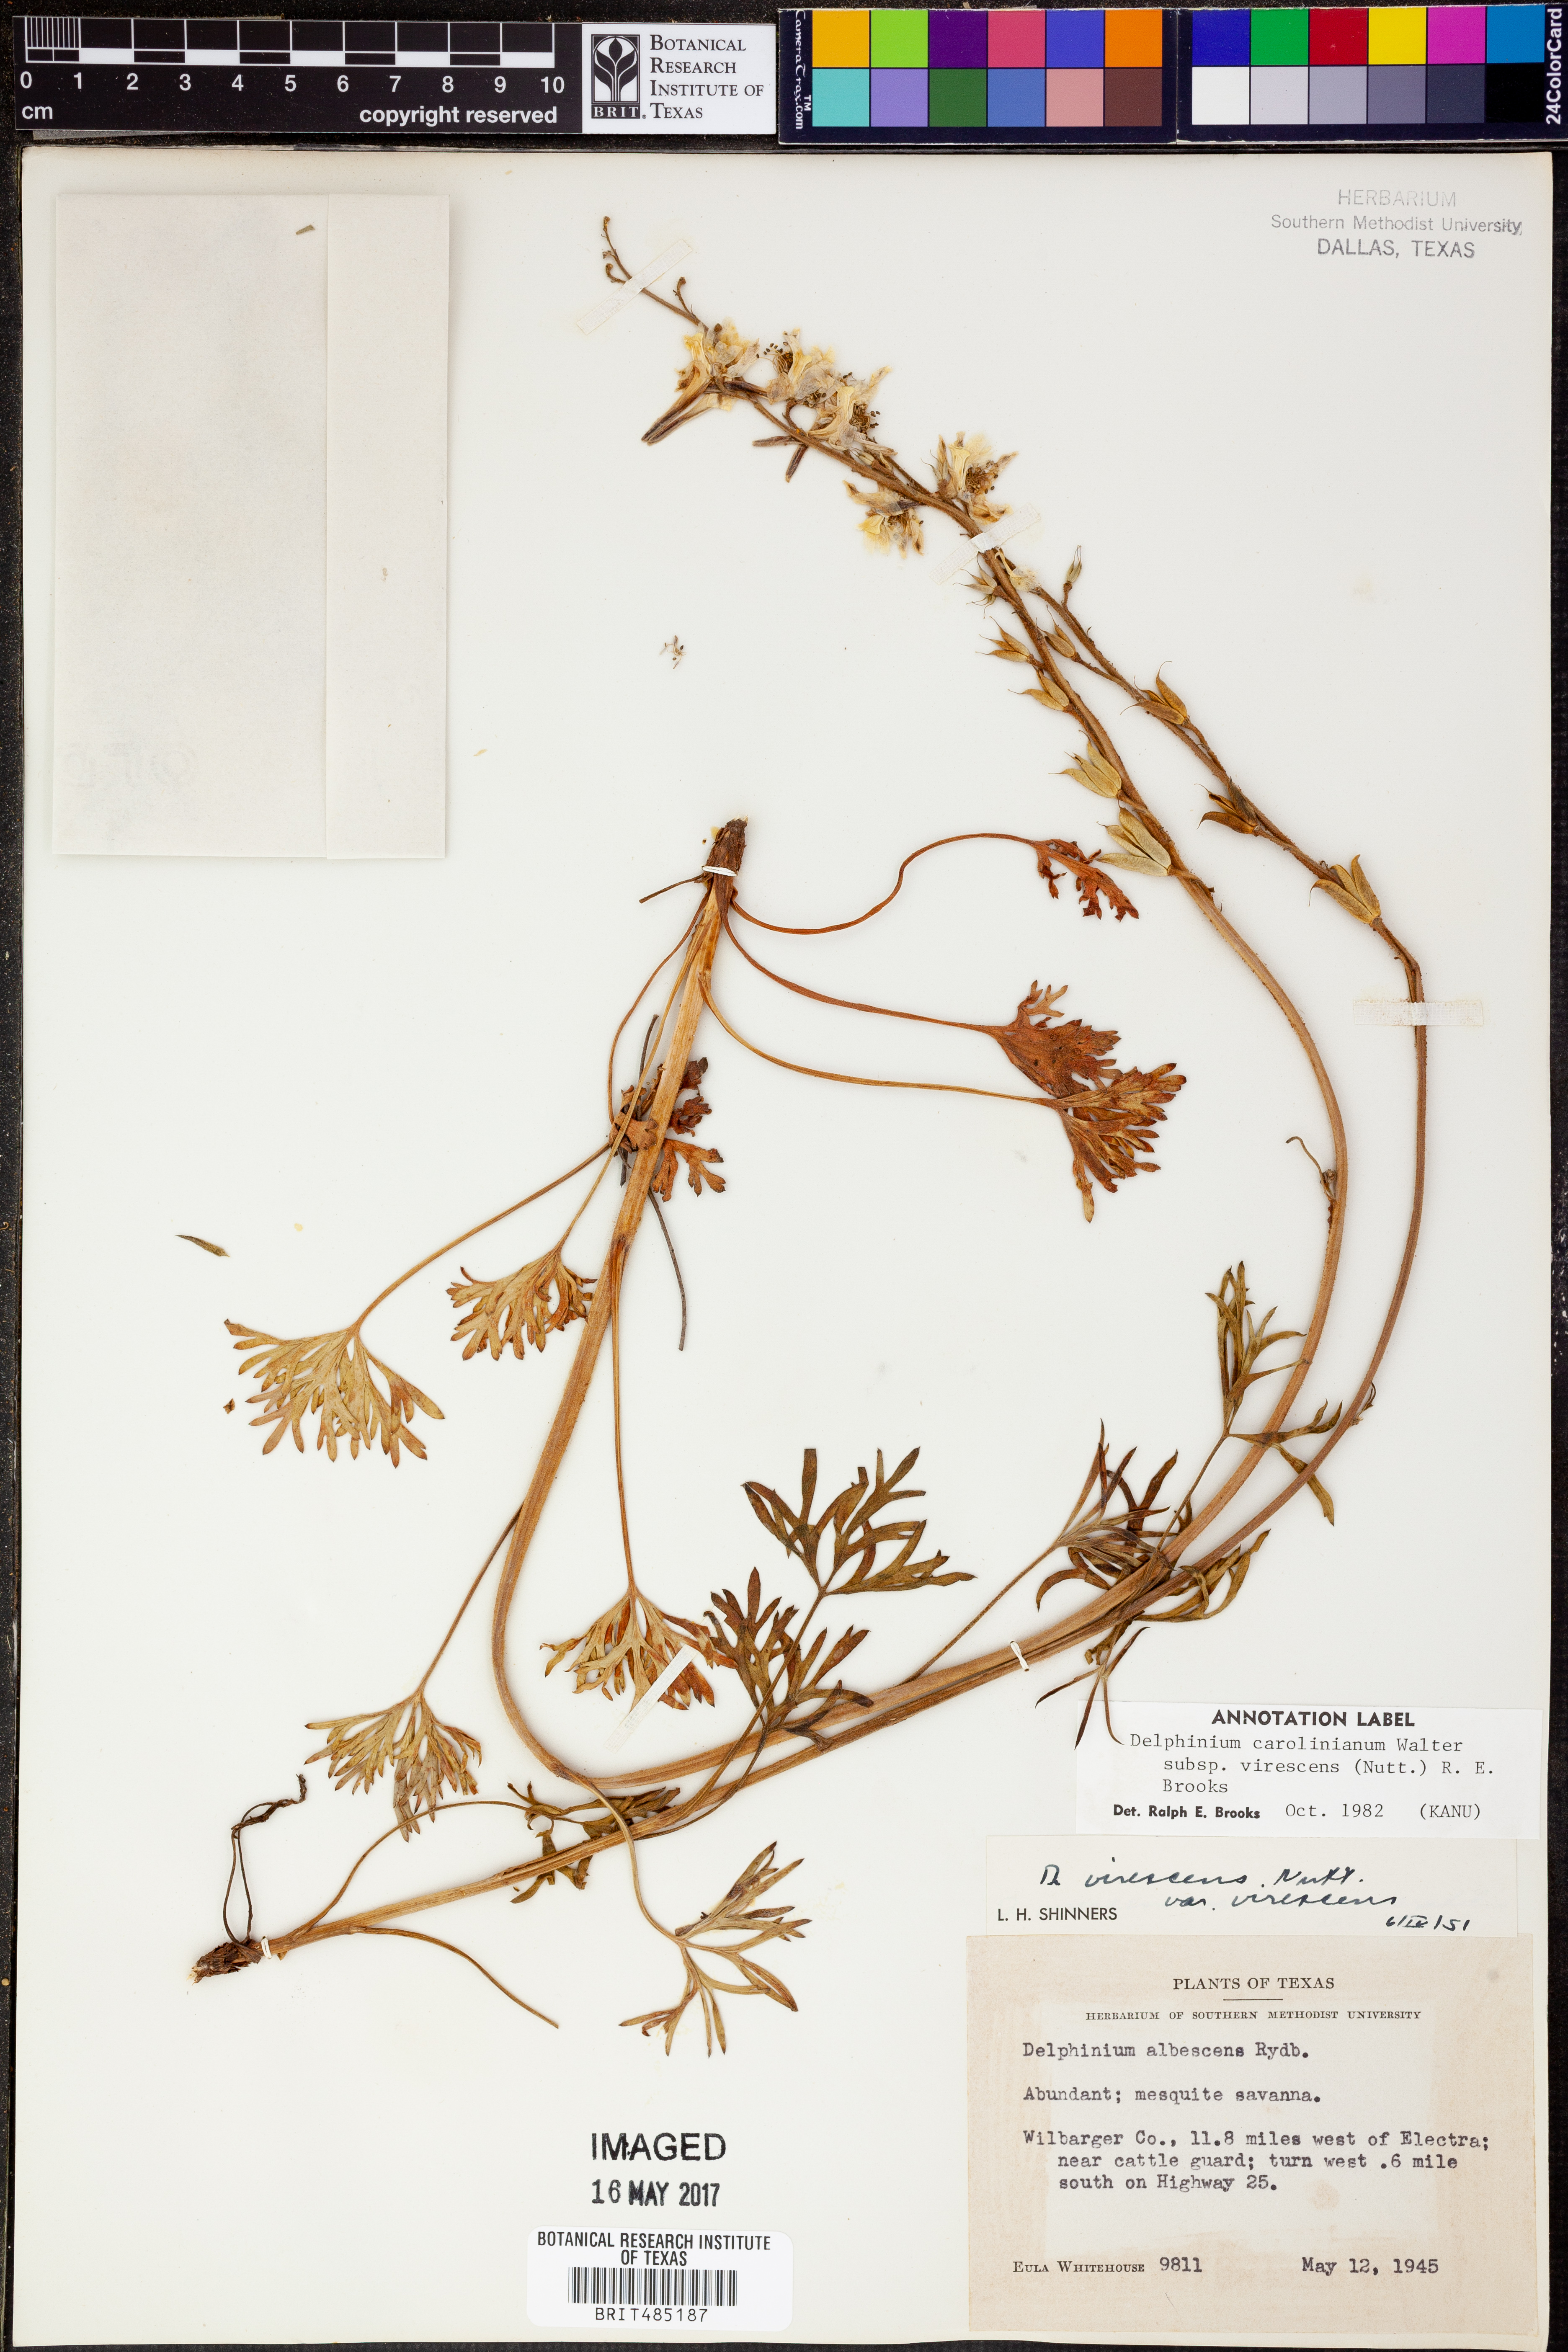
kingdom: Plantae
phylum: Tracheophyta
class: Magnoliopsida
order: Ranunculales
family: Ranunculaceae
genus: Delphinium
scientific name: Delphinium carolinianum
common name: Carolina larkspur
